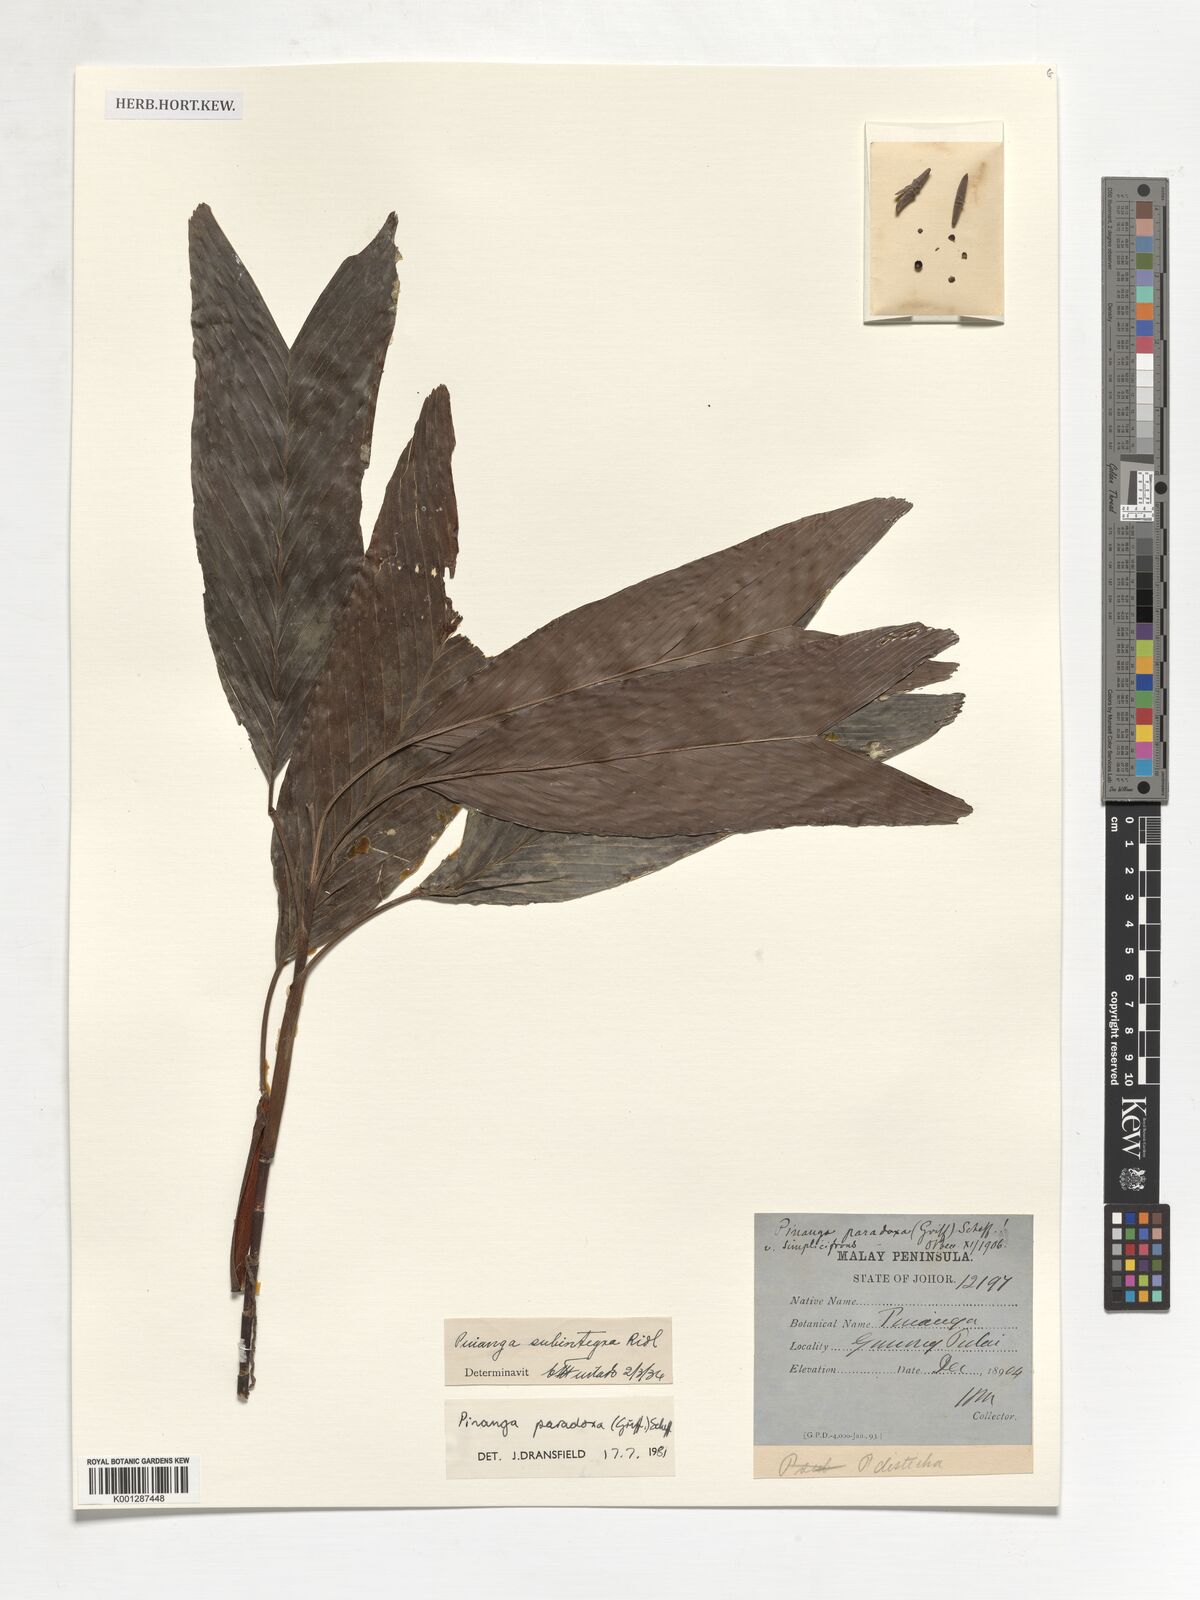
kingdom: Plantae
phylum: Tracheophyta
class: Liliopsida
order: Arecales
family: Arecaceae
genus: Pinanga
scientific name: Pinanga paradoxa
